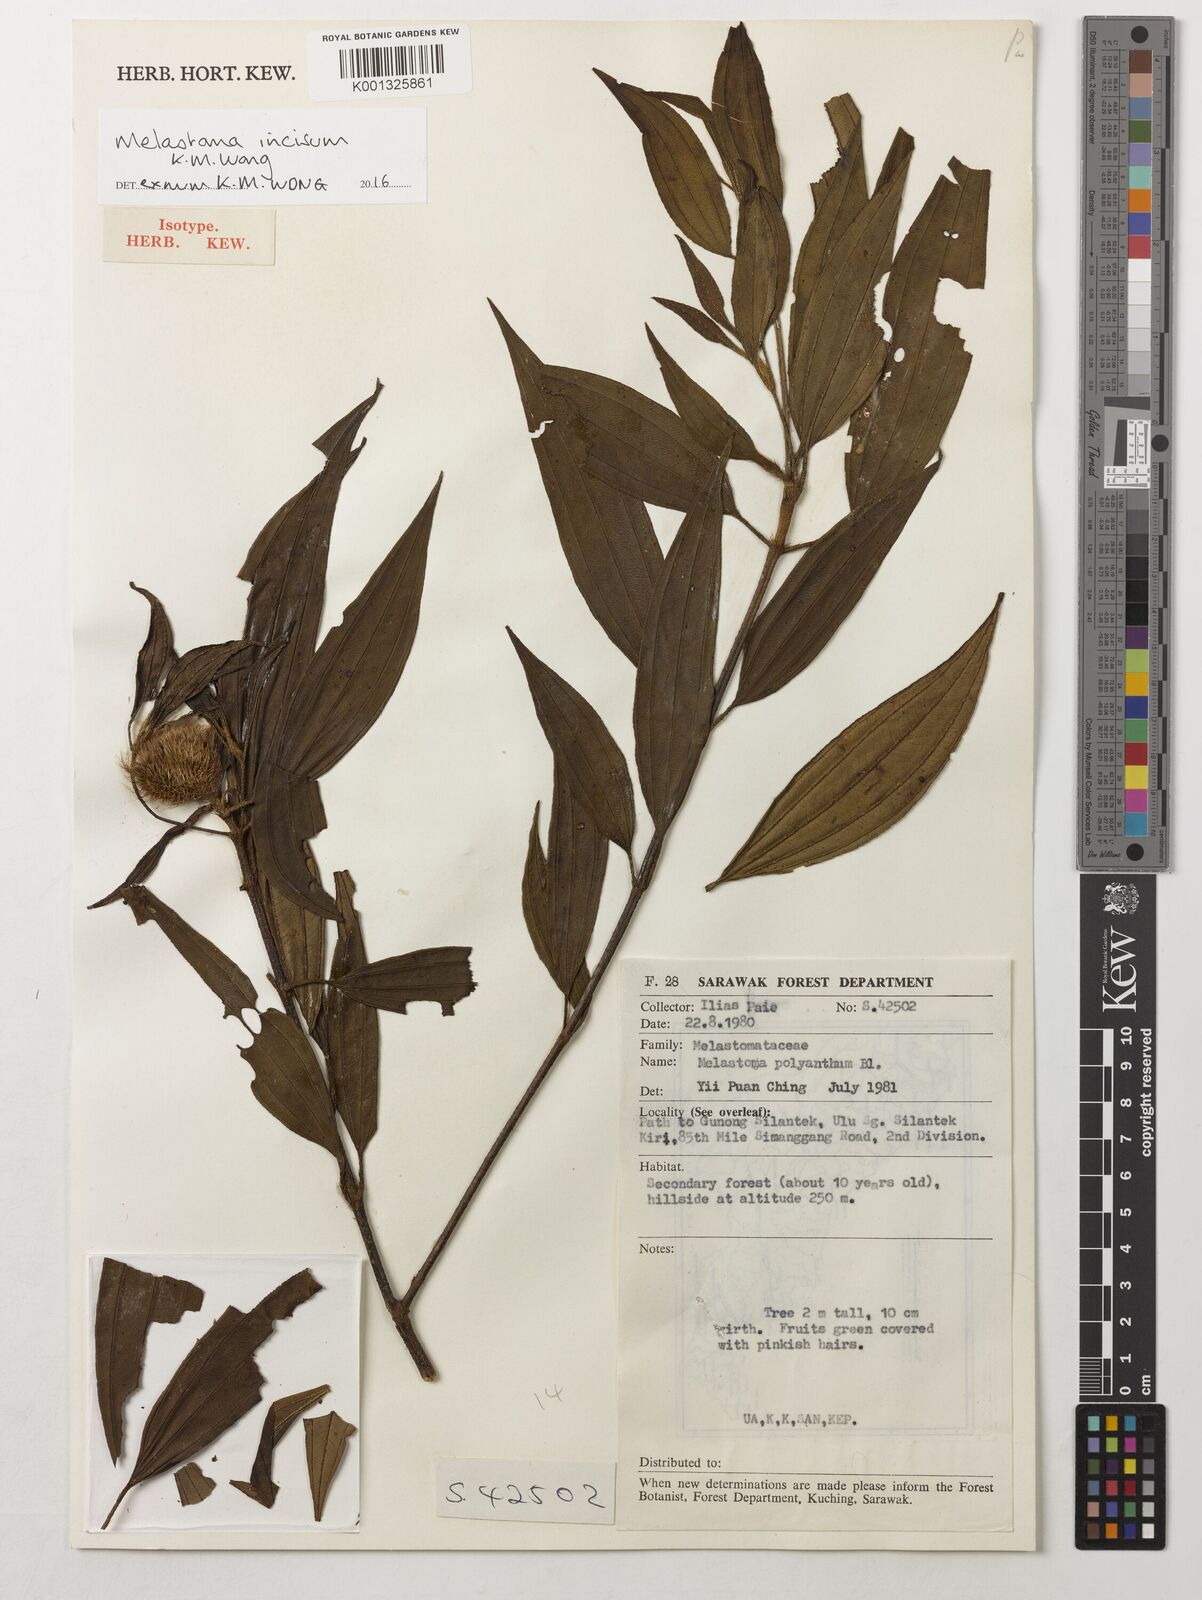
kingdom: Plantae
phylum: Tracheophyta
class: Magnoliopsida
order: Myrtales
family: Melastomataceae
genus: Melastoma
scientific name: Melastoma incisum
